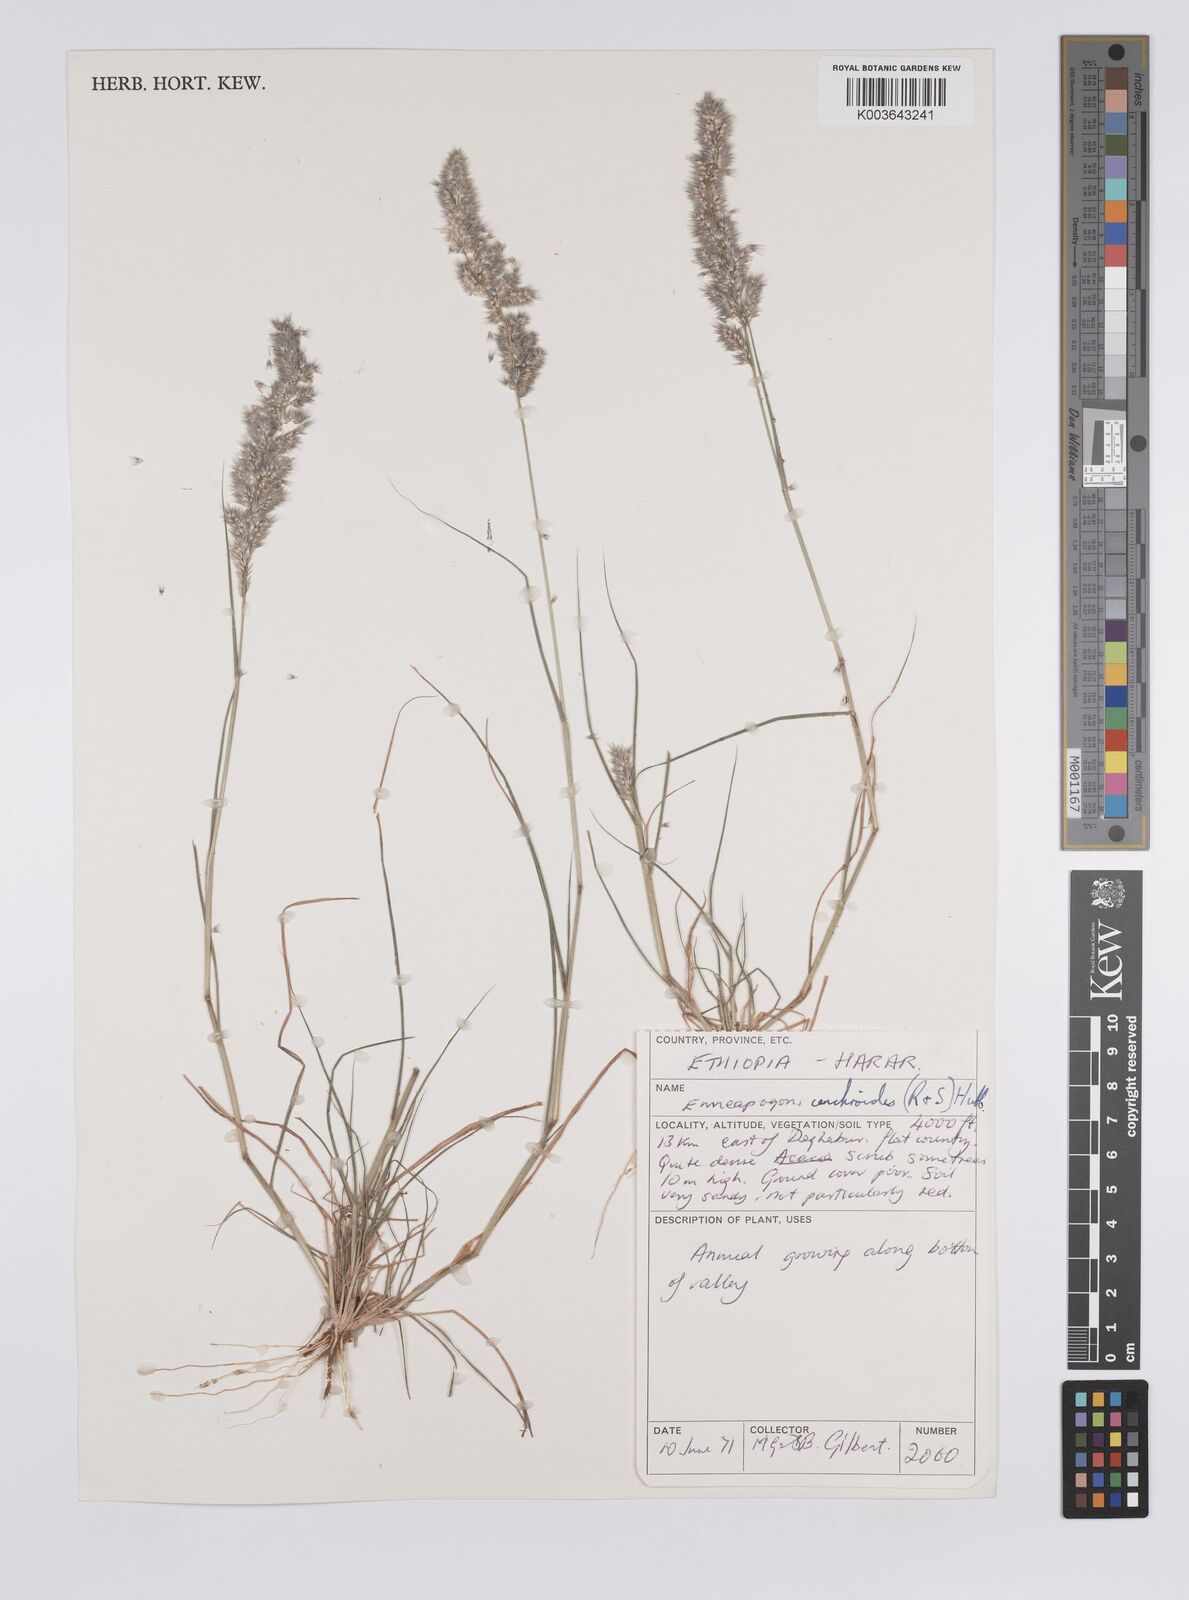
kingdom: Plantae
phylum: Tracheophyta
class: Liliopsida
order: Poales
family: Poaceae
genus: Enneapogon
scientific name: Enneapogon cenchroides
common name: Soft feather pappusgrass
